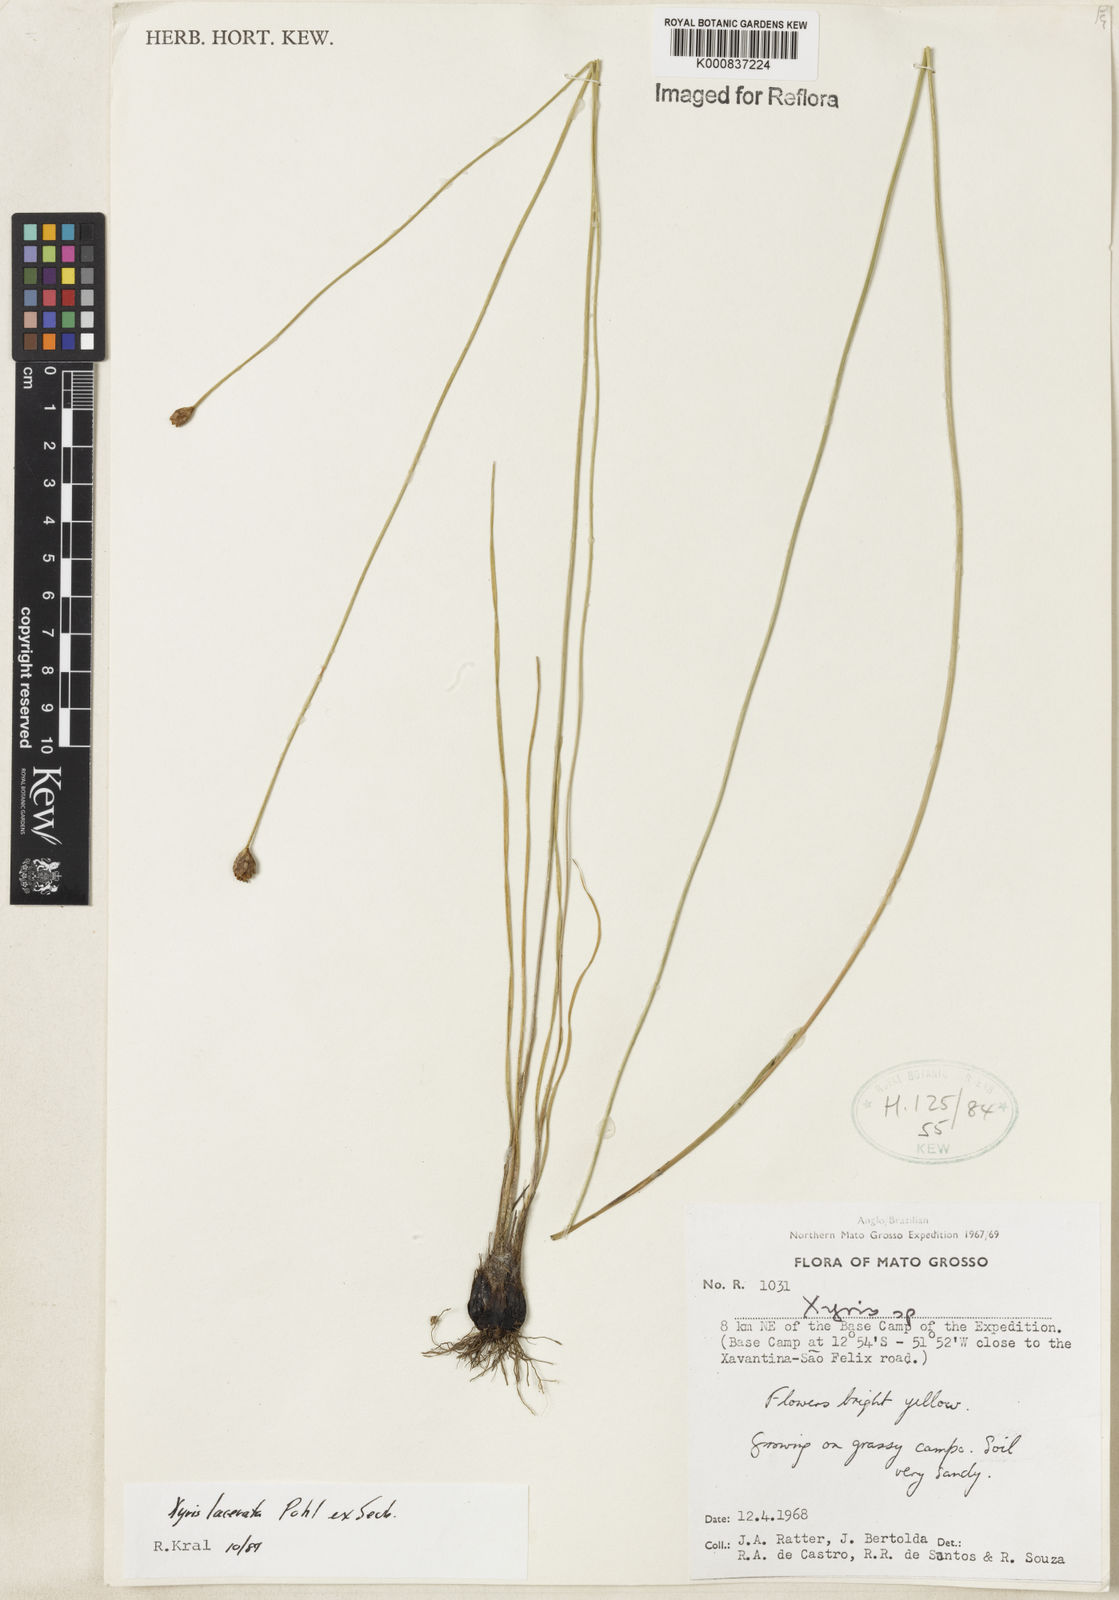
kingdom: Plantae
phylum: Tracheophyta
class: Liliopsida
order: Poales
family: Xyridaceae
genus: Xyris
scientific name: Xyris lacerata
